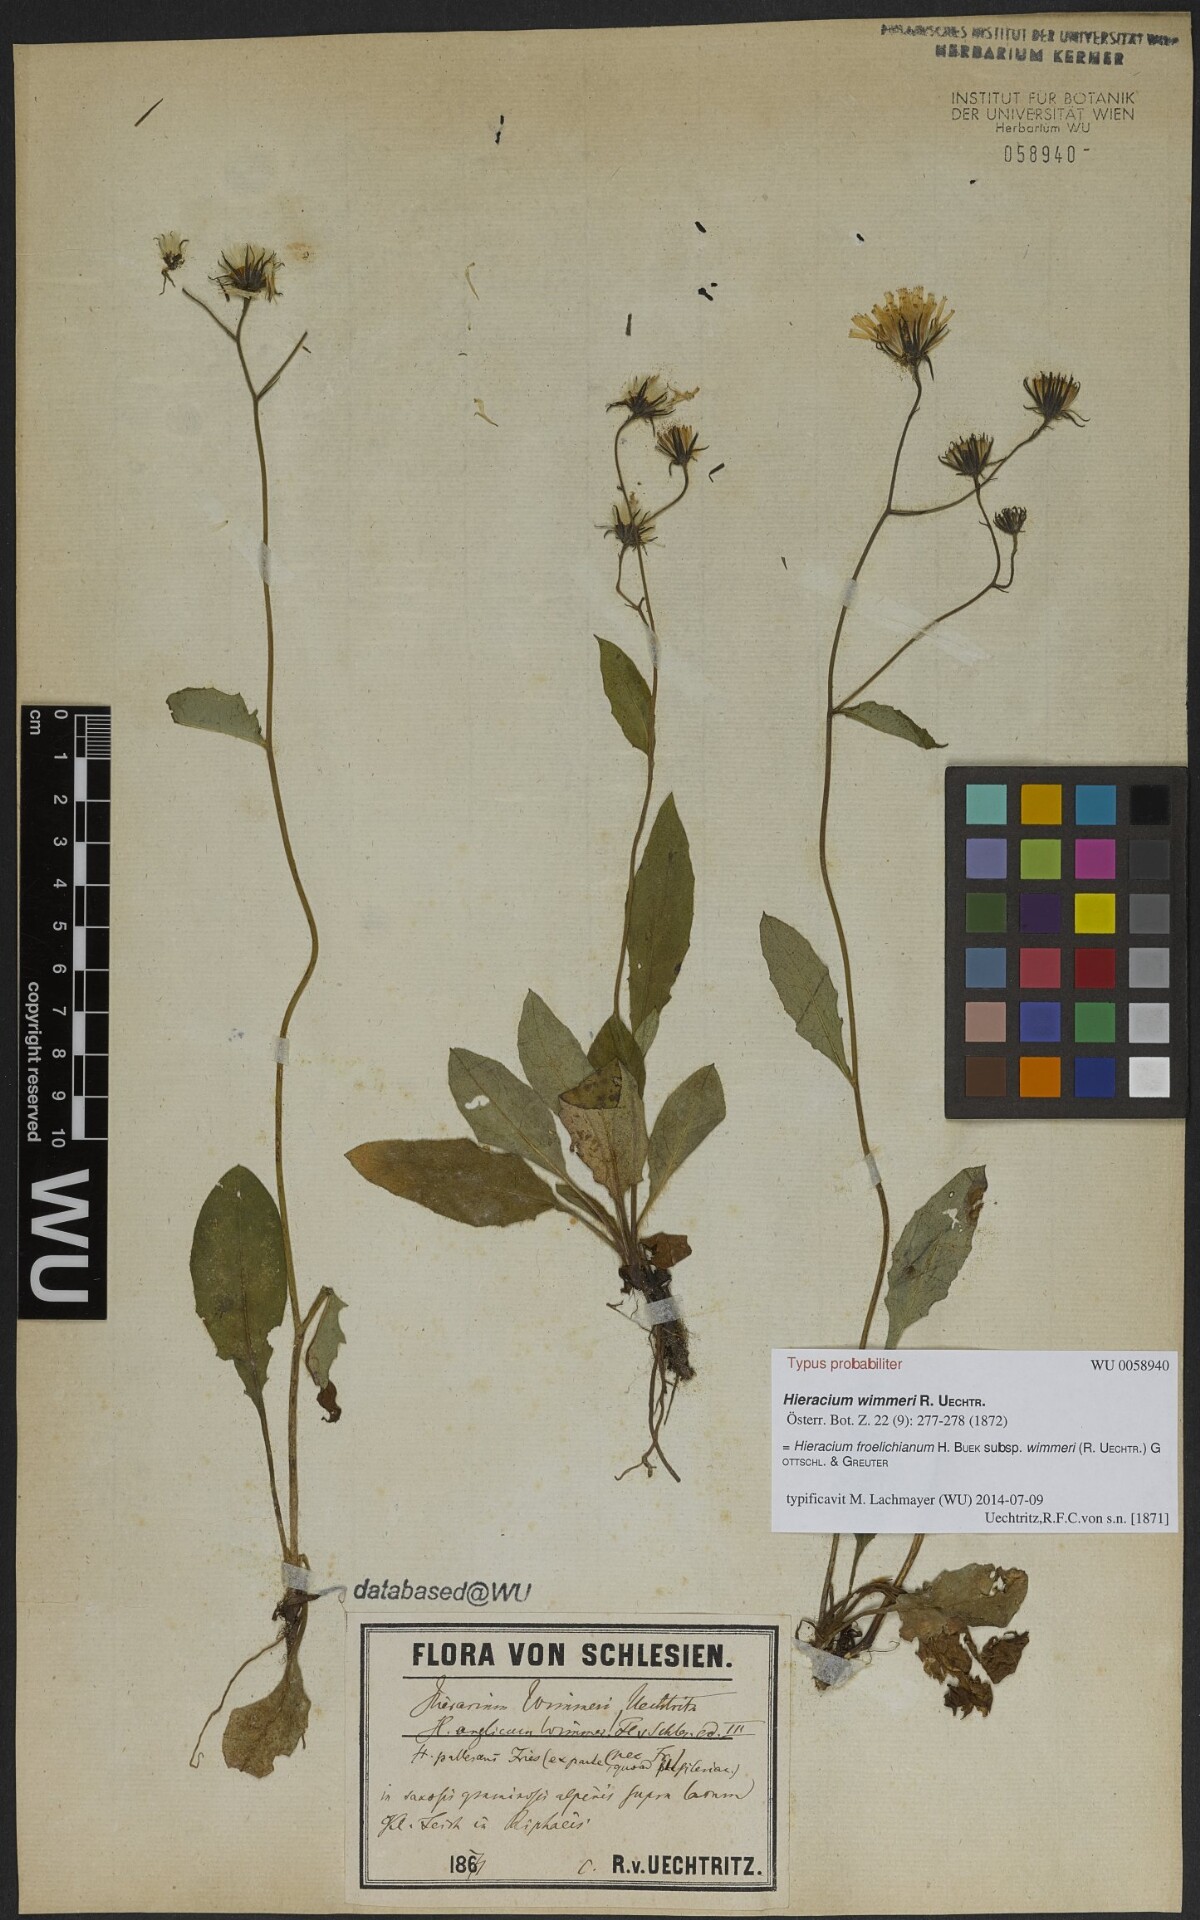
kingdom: Plantae
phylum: Tracheophyta
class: Magnoliopsida
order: Asterales
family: Asteraceae
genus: Hieracium
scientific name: Hieracium froelichianum
